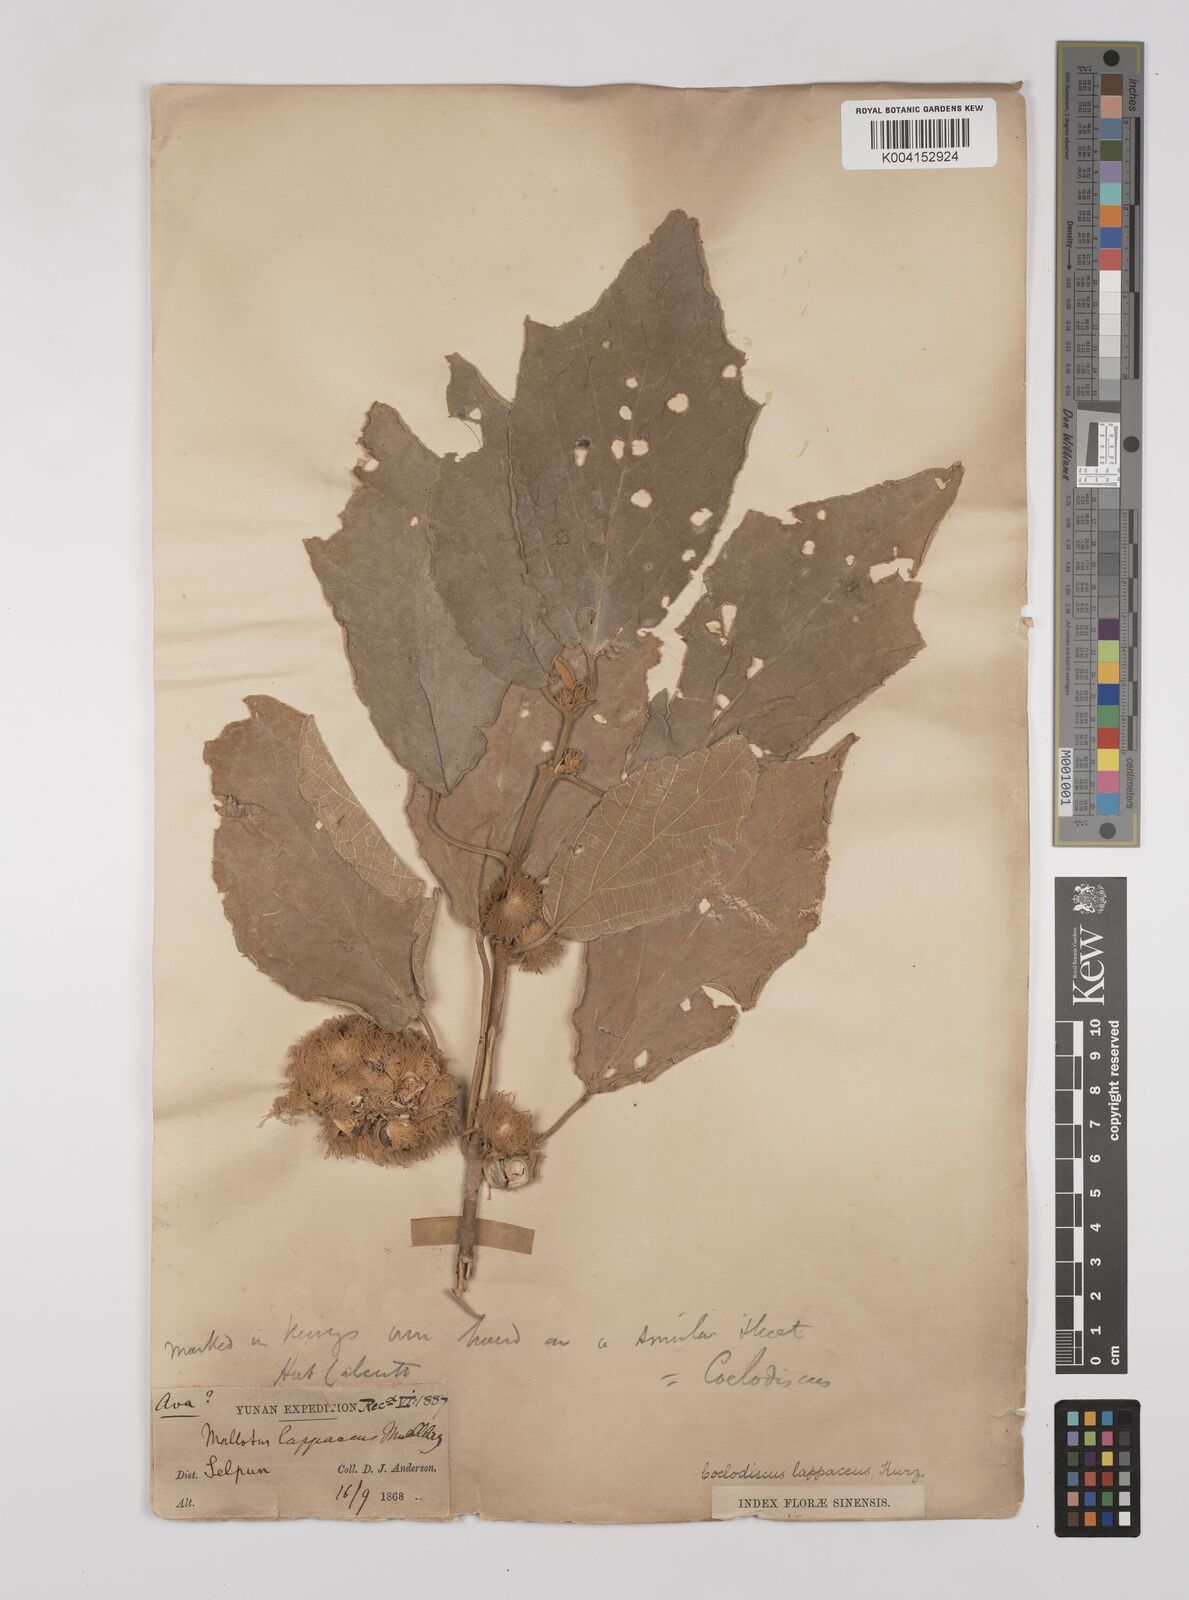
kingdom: Plantae
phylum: Tracheophyta
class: Magnoliopsida
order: Malpighiales
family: Euphorbiaceae
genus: Mallotus
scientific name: Mallotus lappaceus
